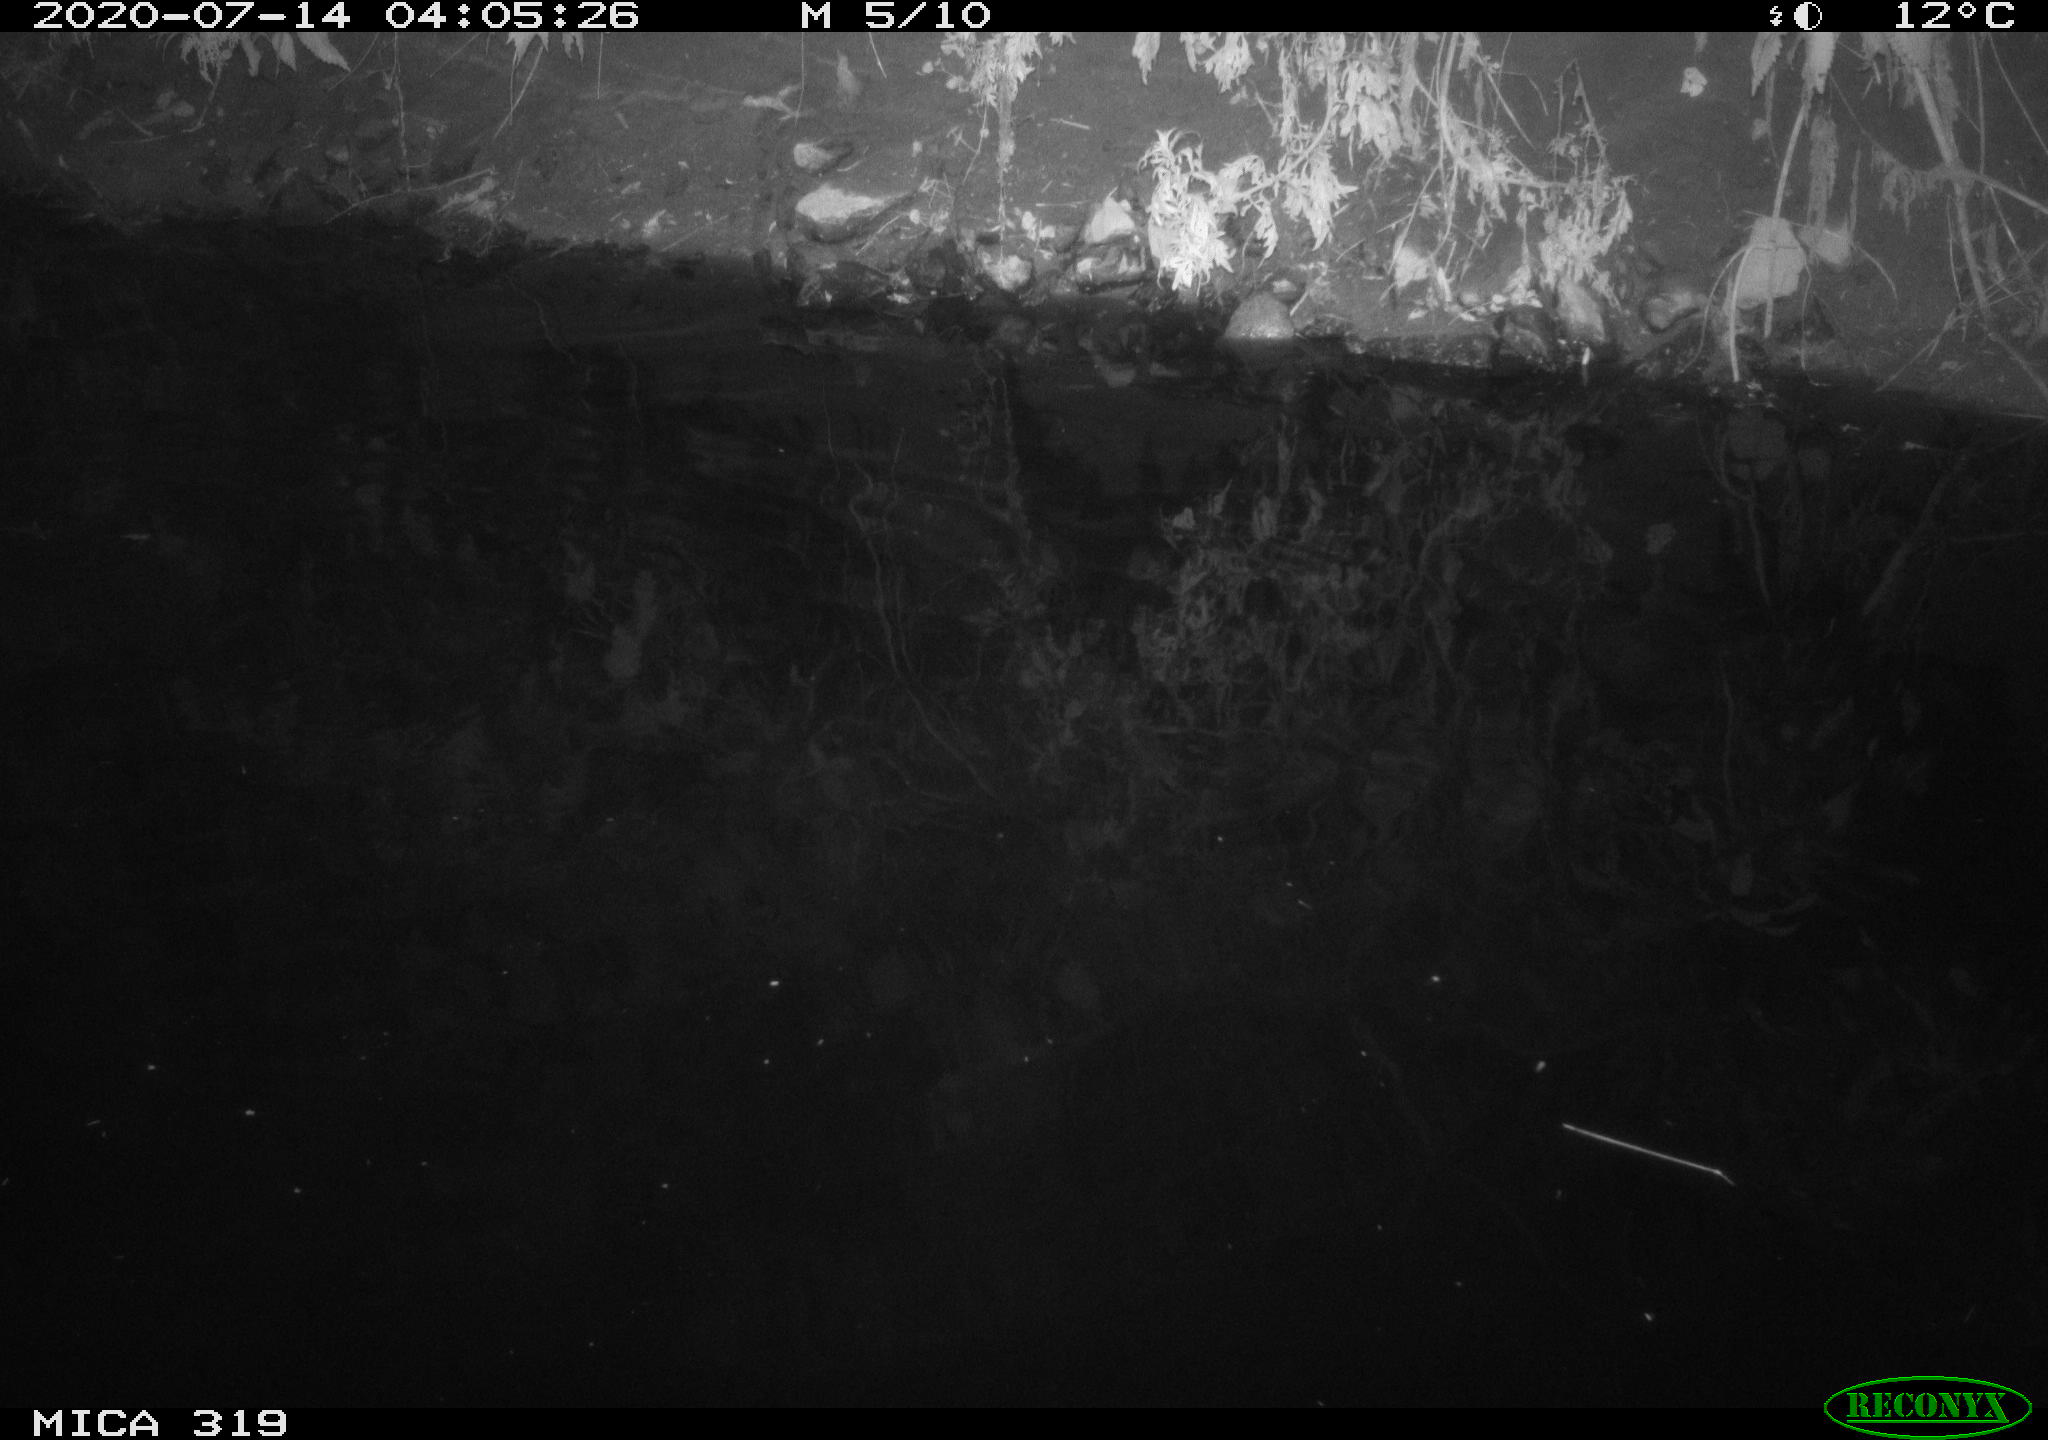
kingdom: Animalia
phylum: Chordata
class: Aves
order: Anseriformes
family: Anatidae
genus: Anas
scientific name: Anas platyrhynchos
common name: Mallard
